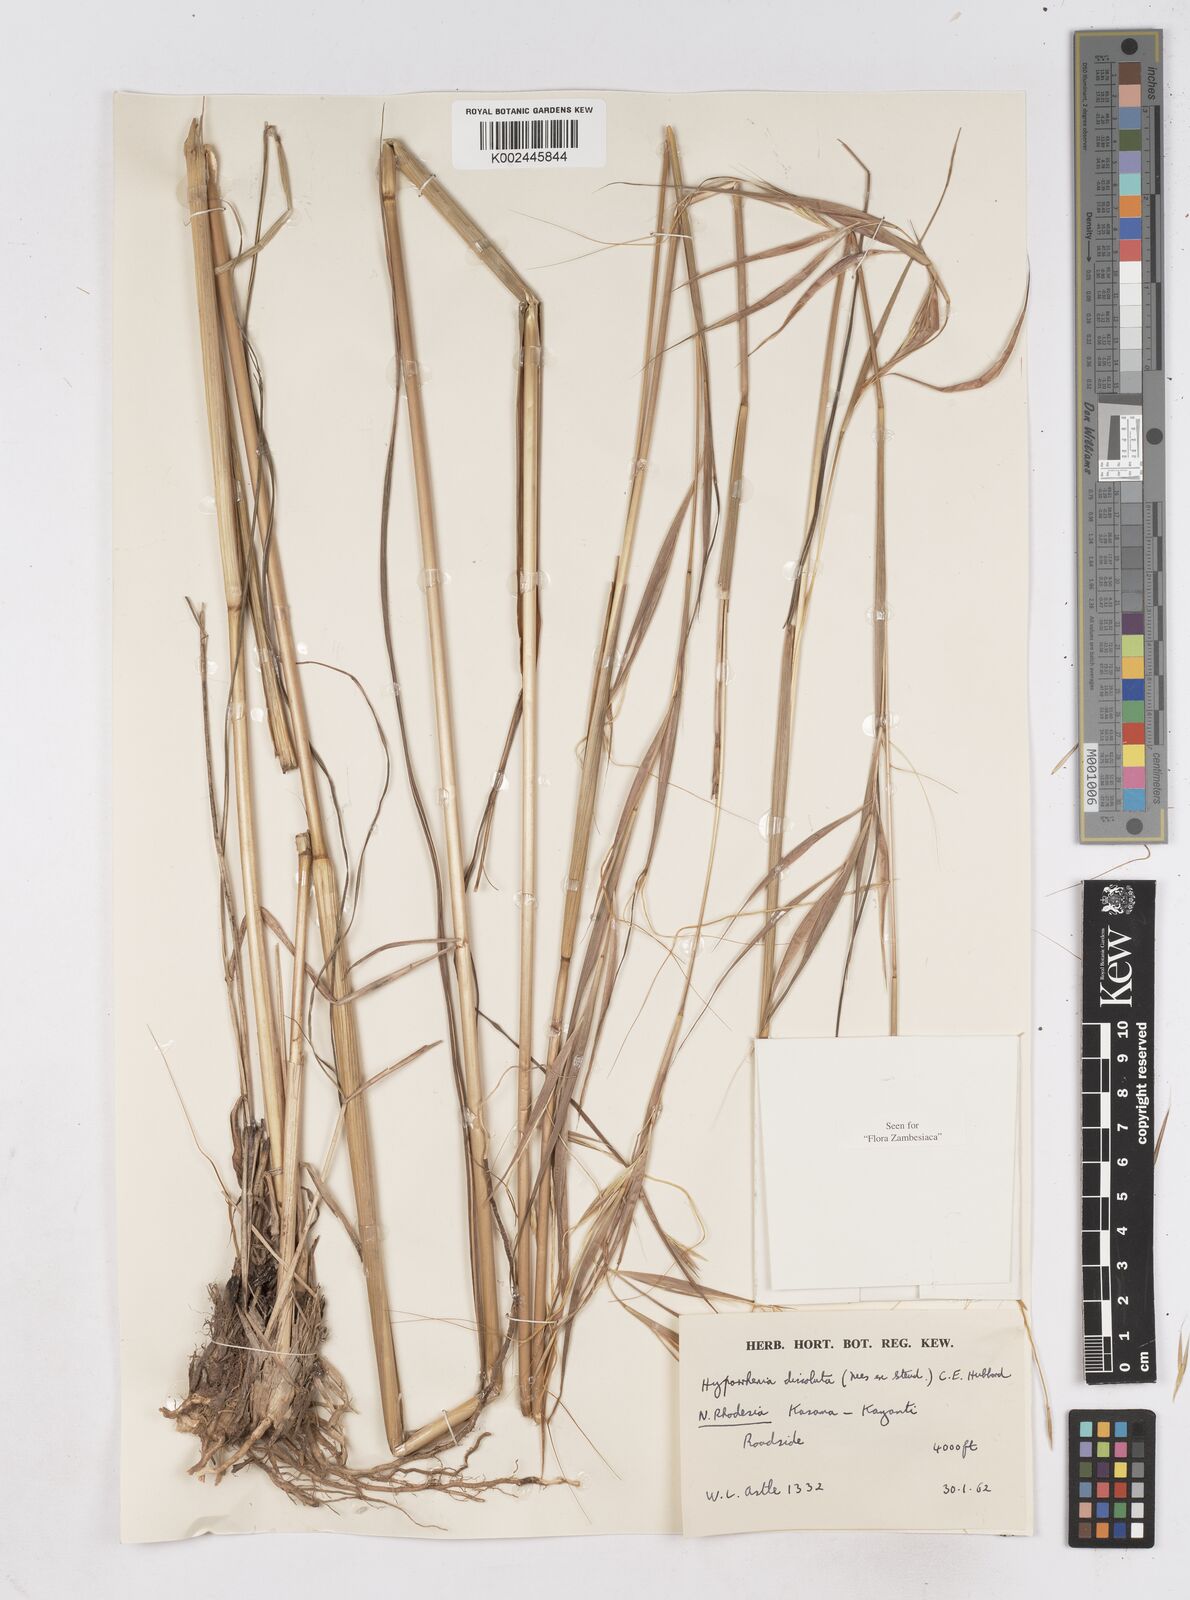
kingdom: Plantae
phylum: Tracheophyta
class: Liliopsida
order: Poales
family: Poaceae
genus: Hyperthelia
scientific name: Hyperthelia dissoluta
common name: Yellow thatching grass
